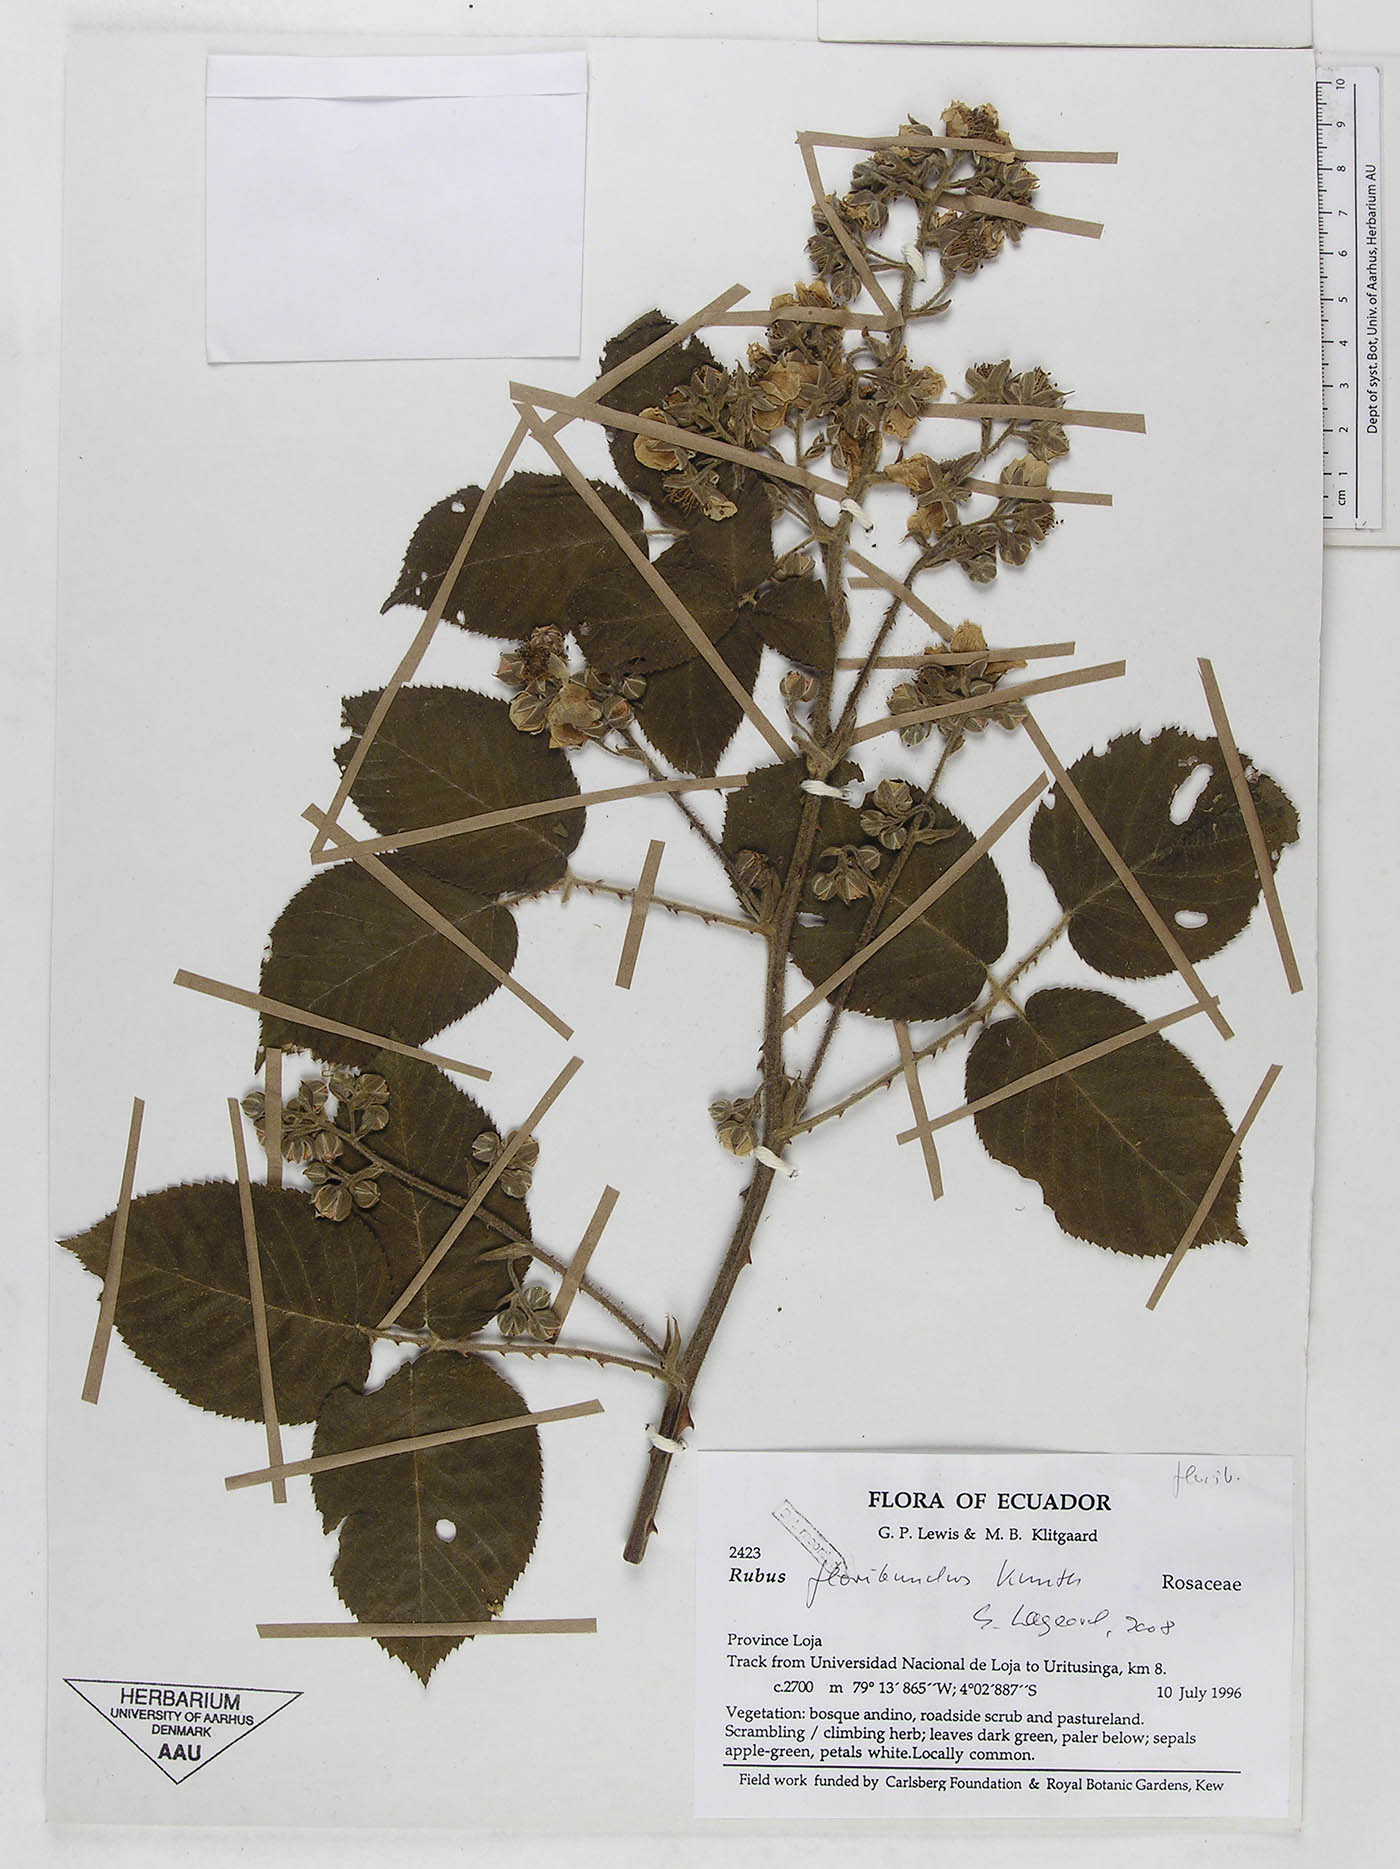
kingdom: Plantae
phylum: Tracheophyta
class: Magnoliopsida
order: Rosales
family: Rosaceae
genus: Rubus
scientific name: Rubus floribundus
